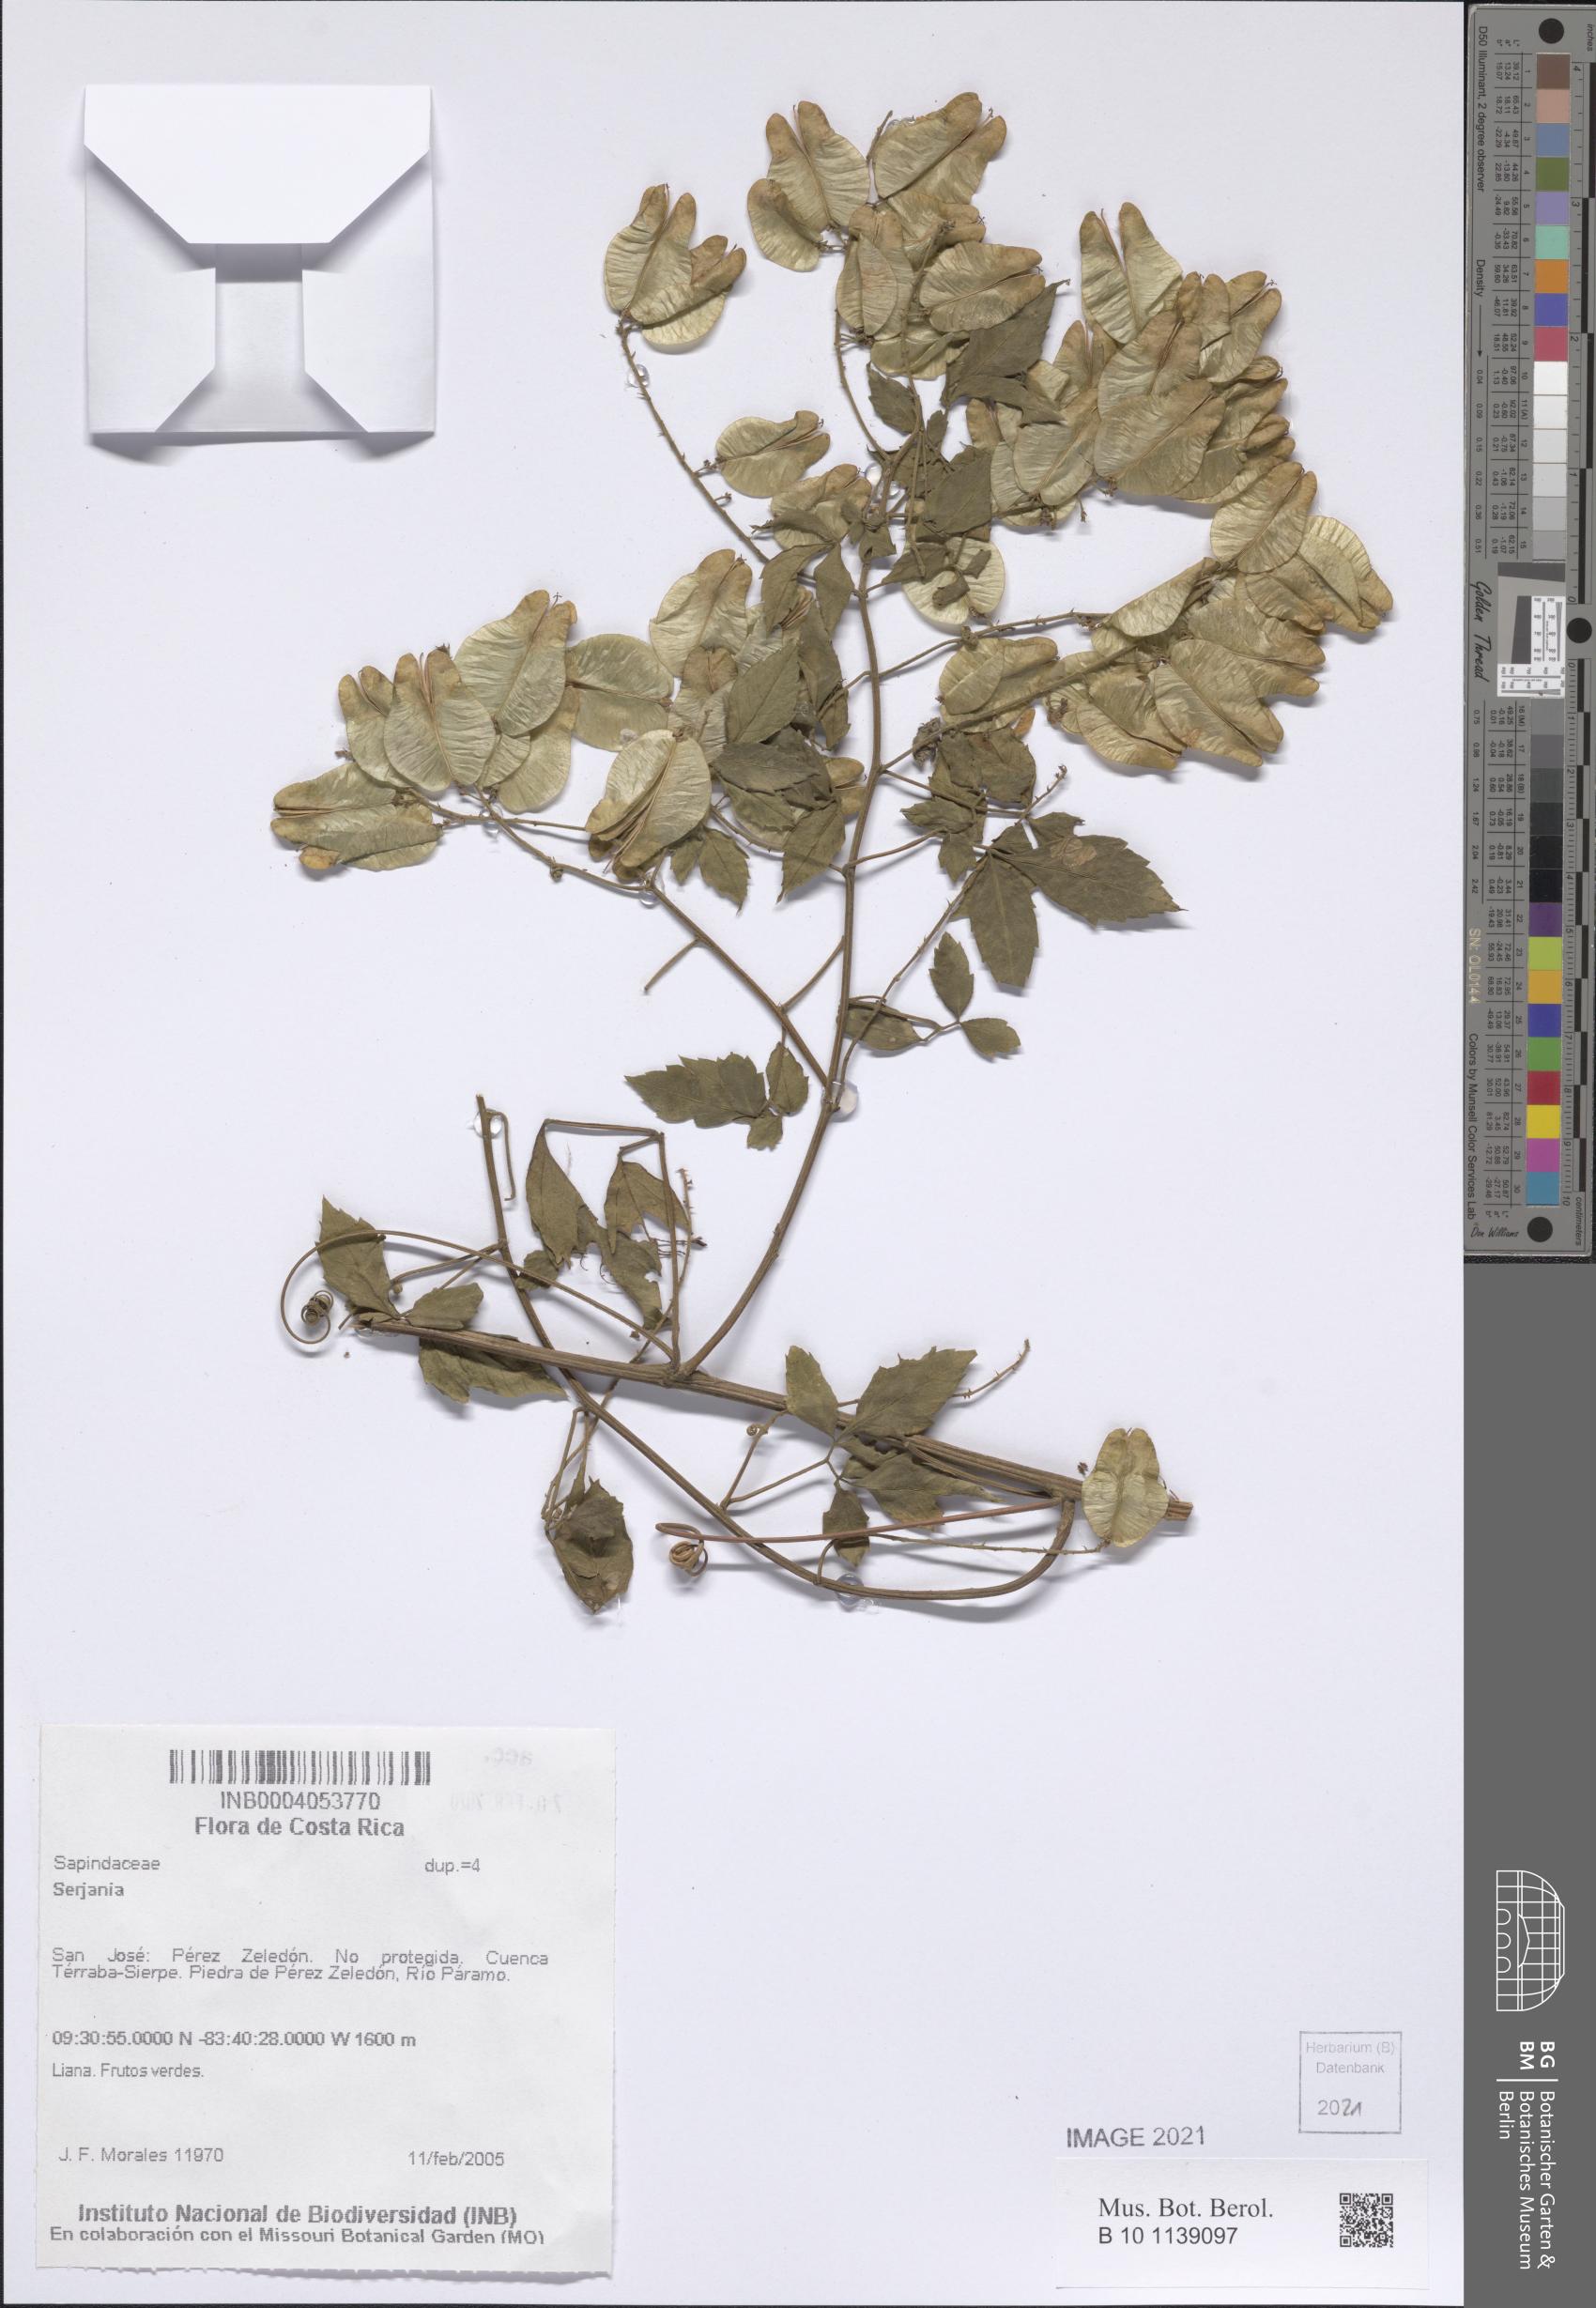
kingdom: Plantae
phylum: Tracheophyta
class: Magnoliopsida
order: Sapindales
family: Sapindaceae
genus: Serjania
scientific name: Serjania
